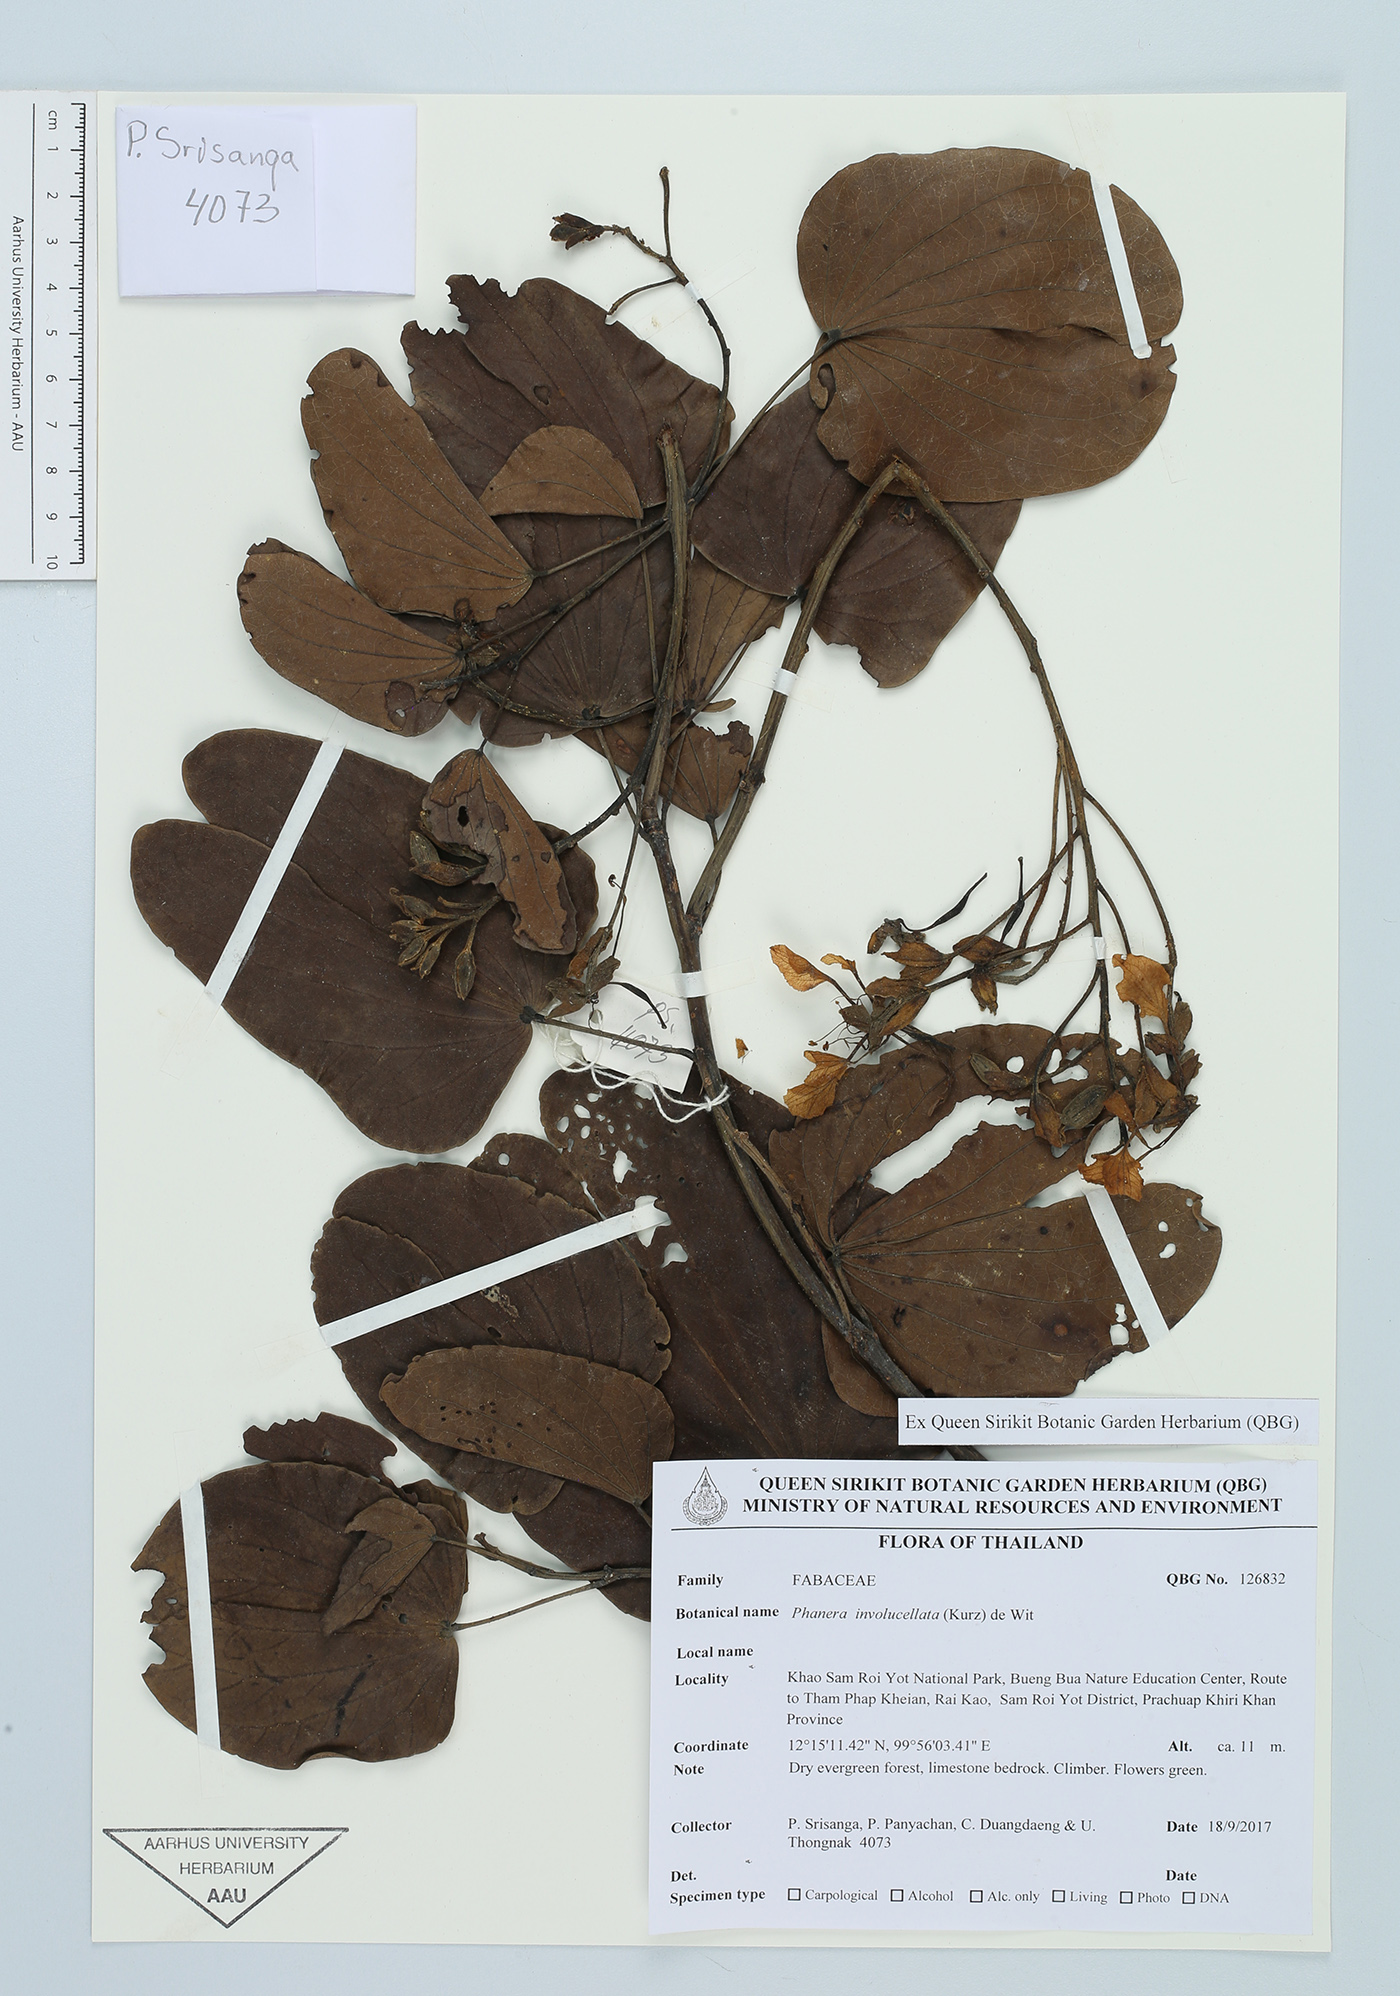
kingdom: Plantae
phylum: Tracheophyta
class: Magnoliopsida
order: Fabales
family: Fabaceae
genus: Phanera
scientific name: Phanera involucellata
